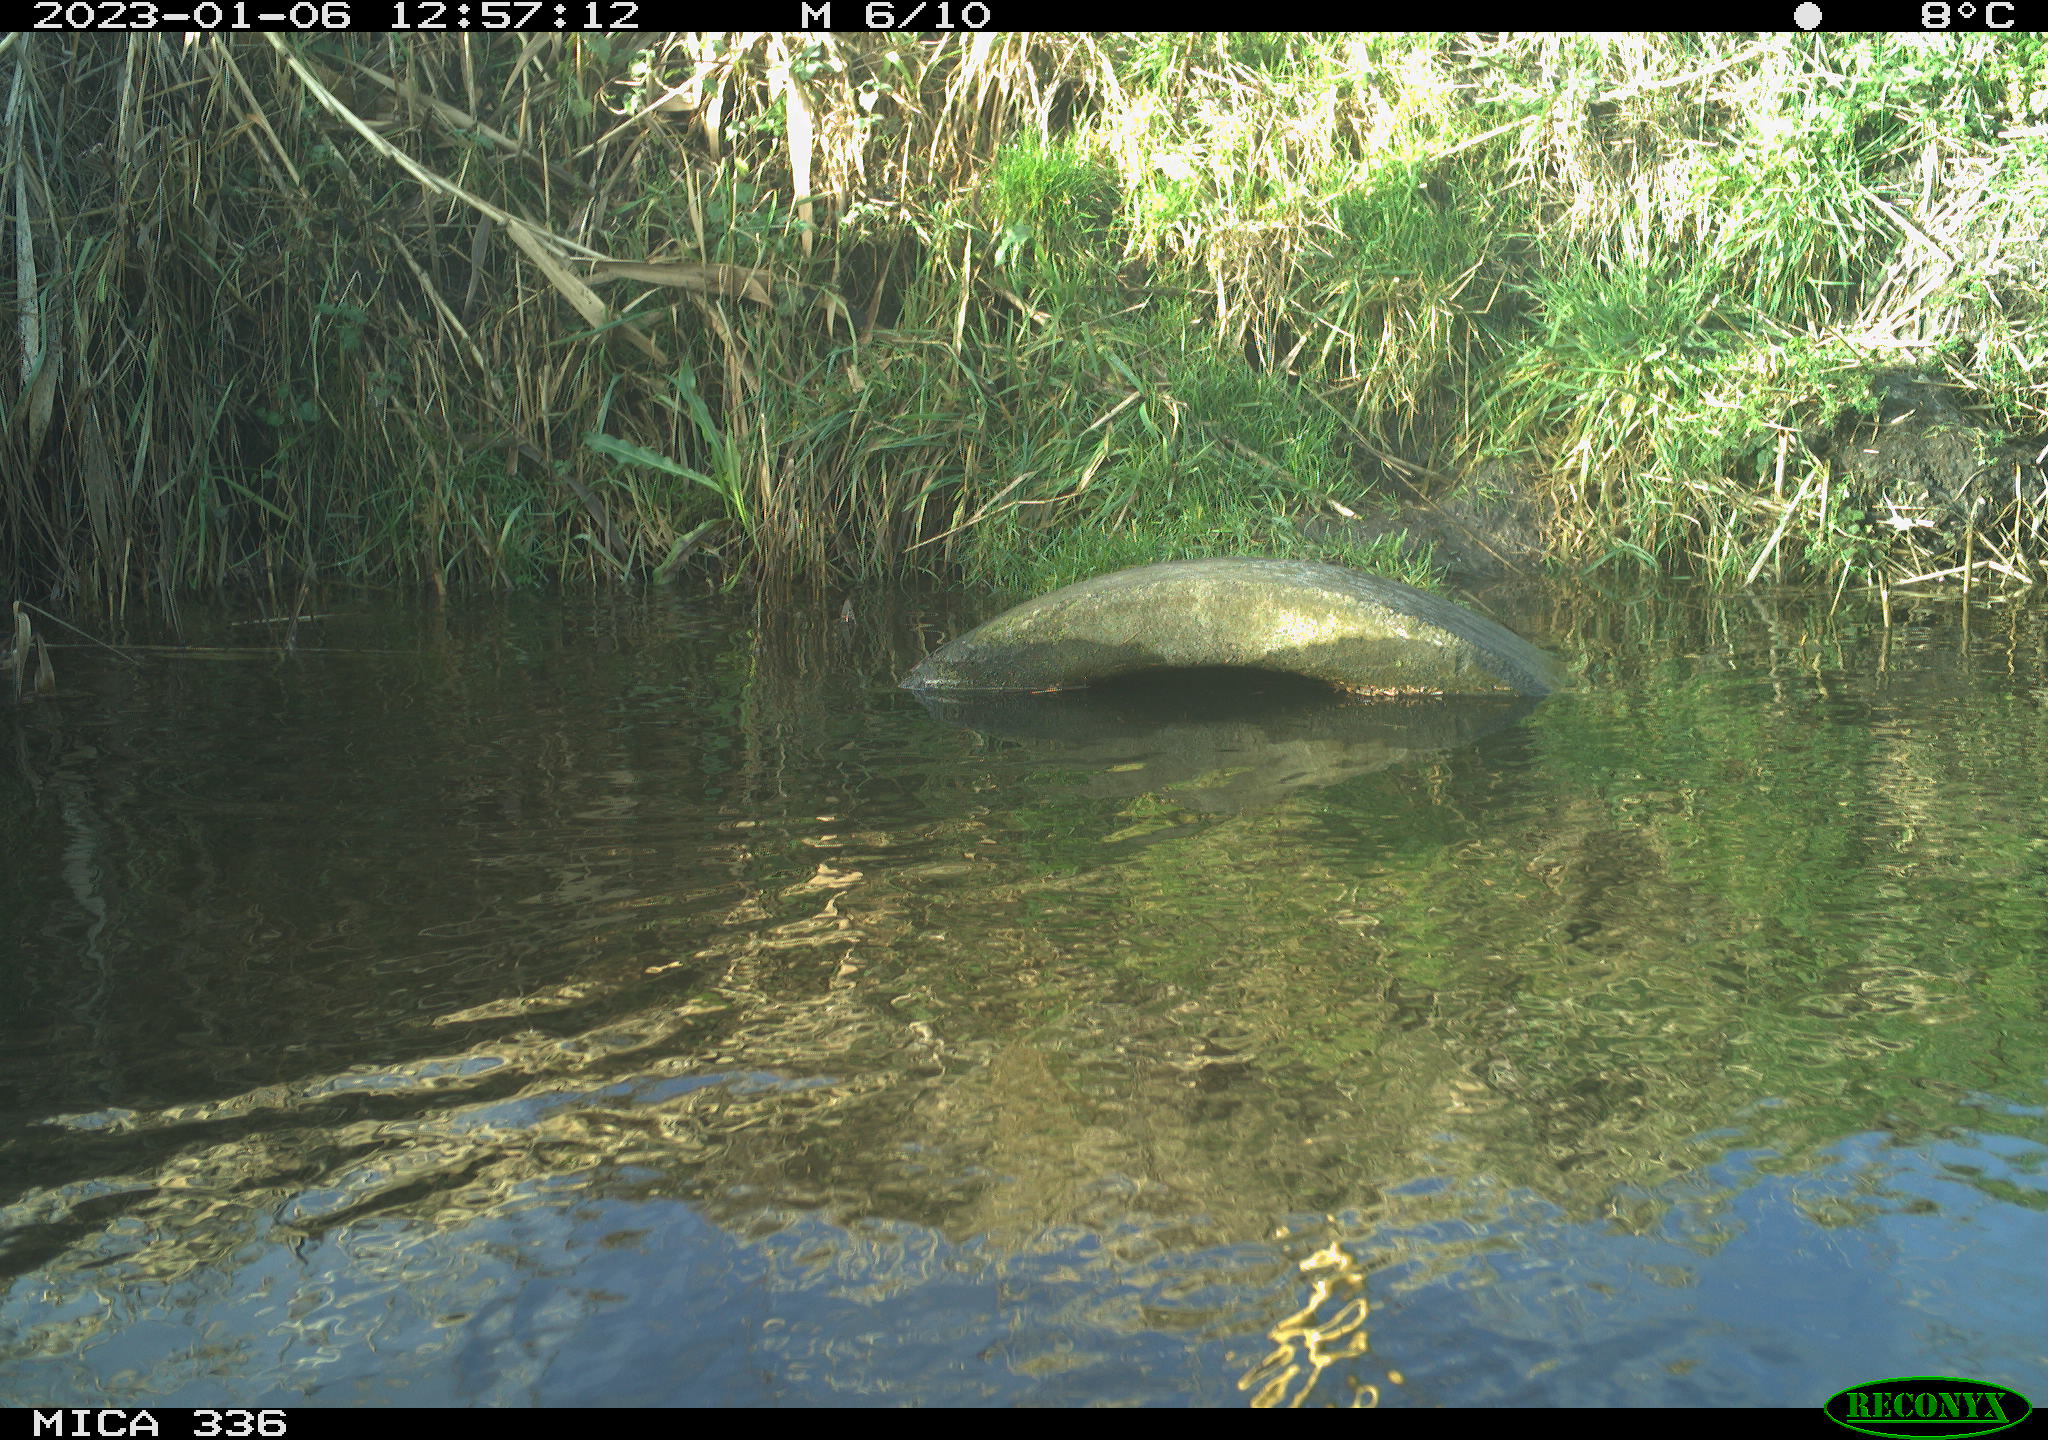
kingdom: Animalia
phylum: Chordata
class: Aves
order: Gruiformes
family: Rallidae
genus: Rallus
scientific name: Rallus aquaticus
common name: Water rail
